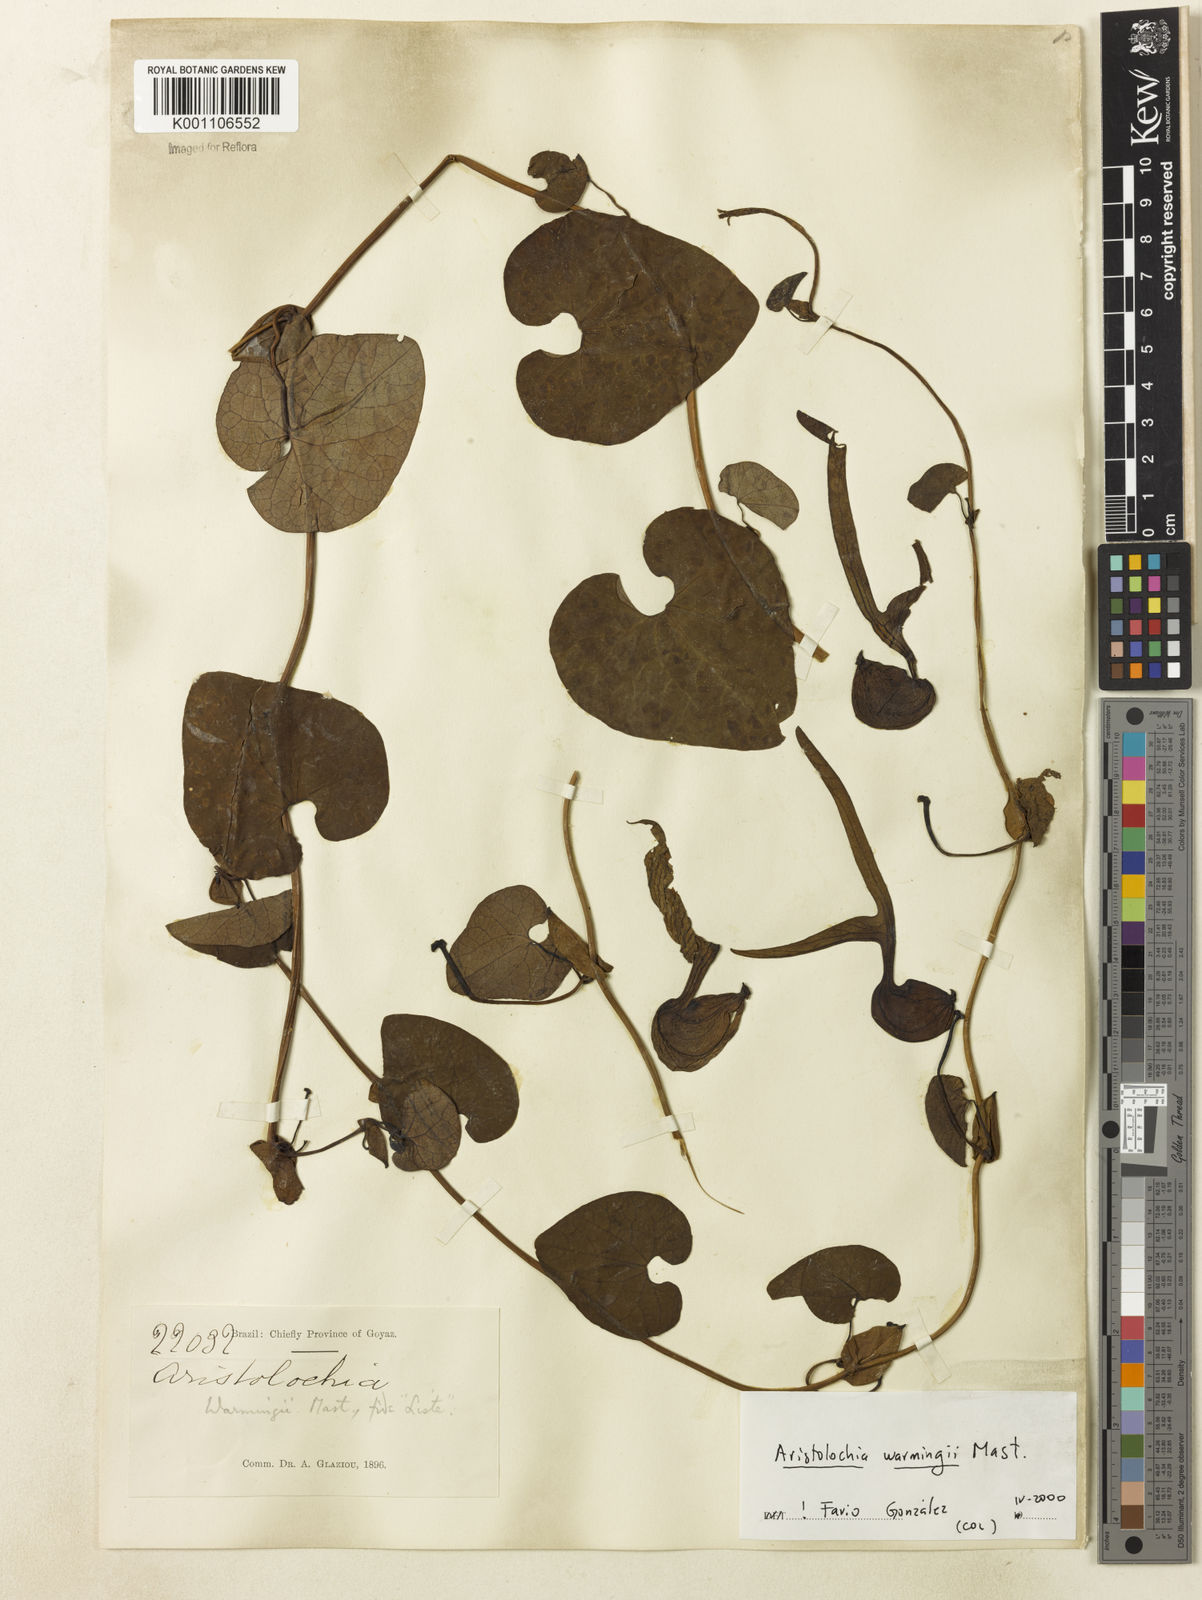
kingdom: Plantae
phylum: Tracheophyta
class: Magnoliopsida
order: Piperales
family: Aristolochiaceae
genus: Aristolochia
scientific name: Aristolochia warmingii
